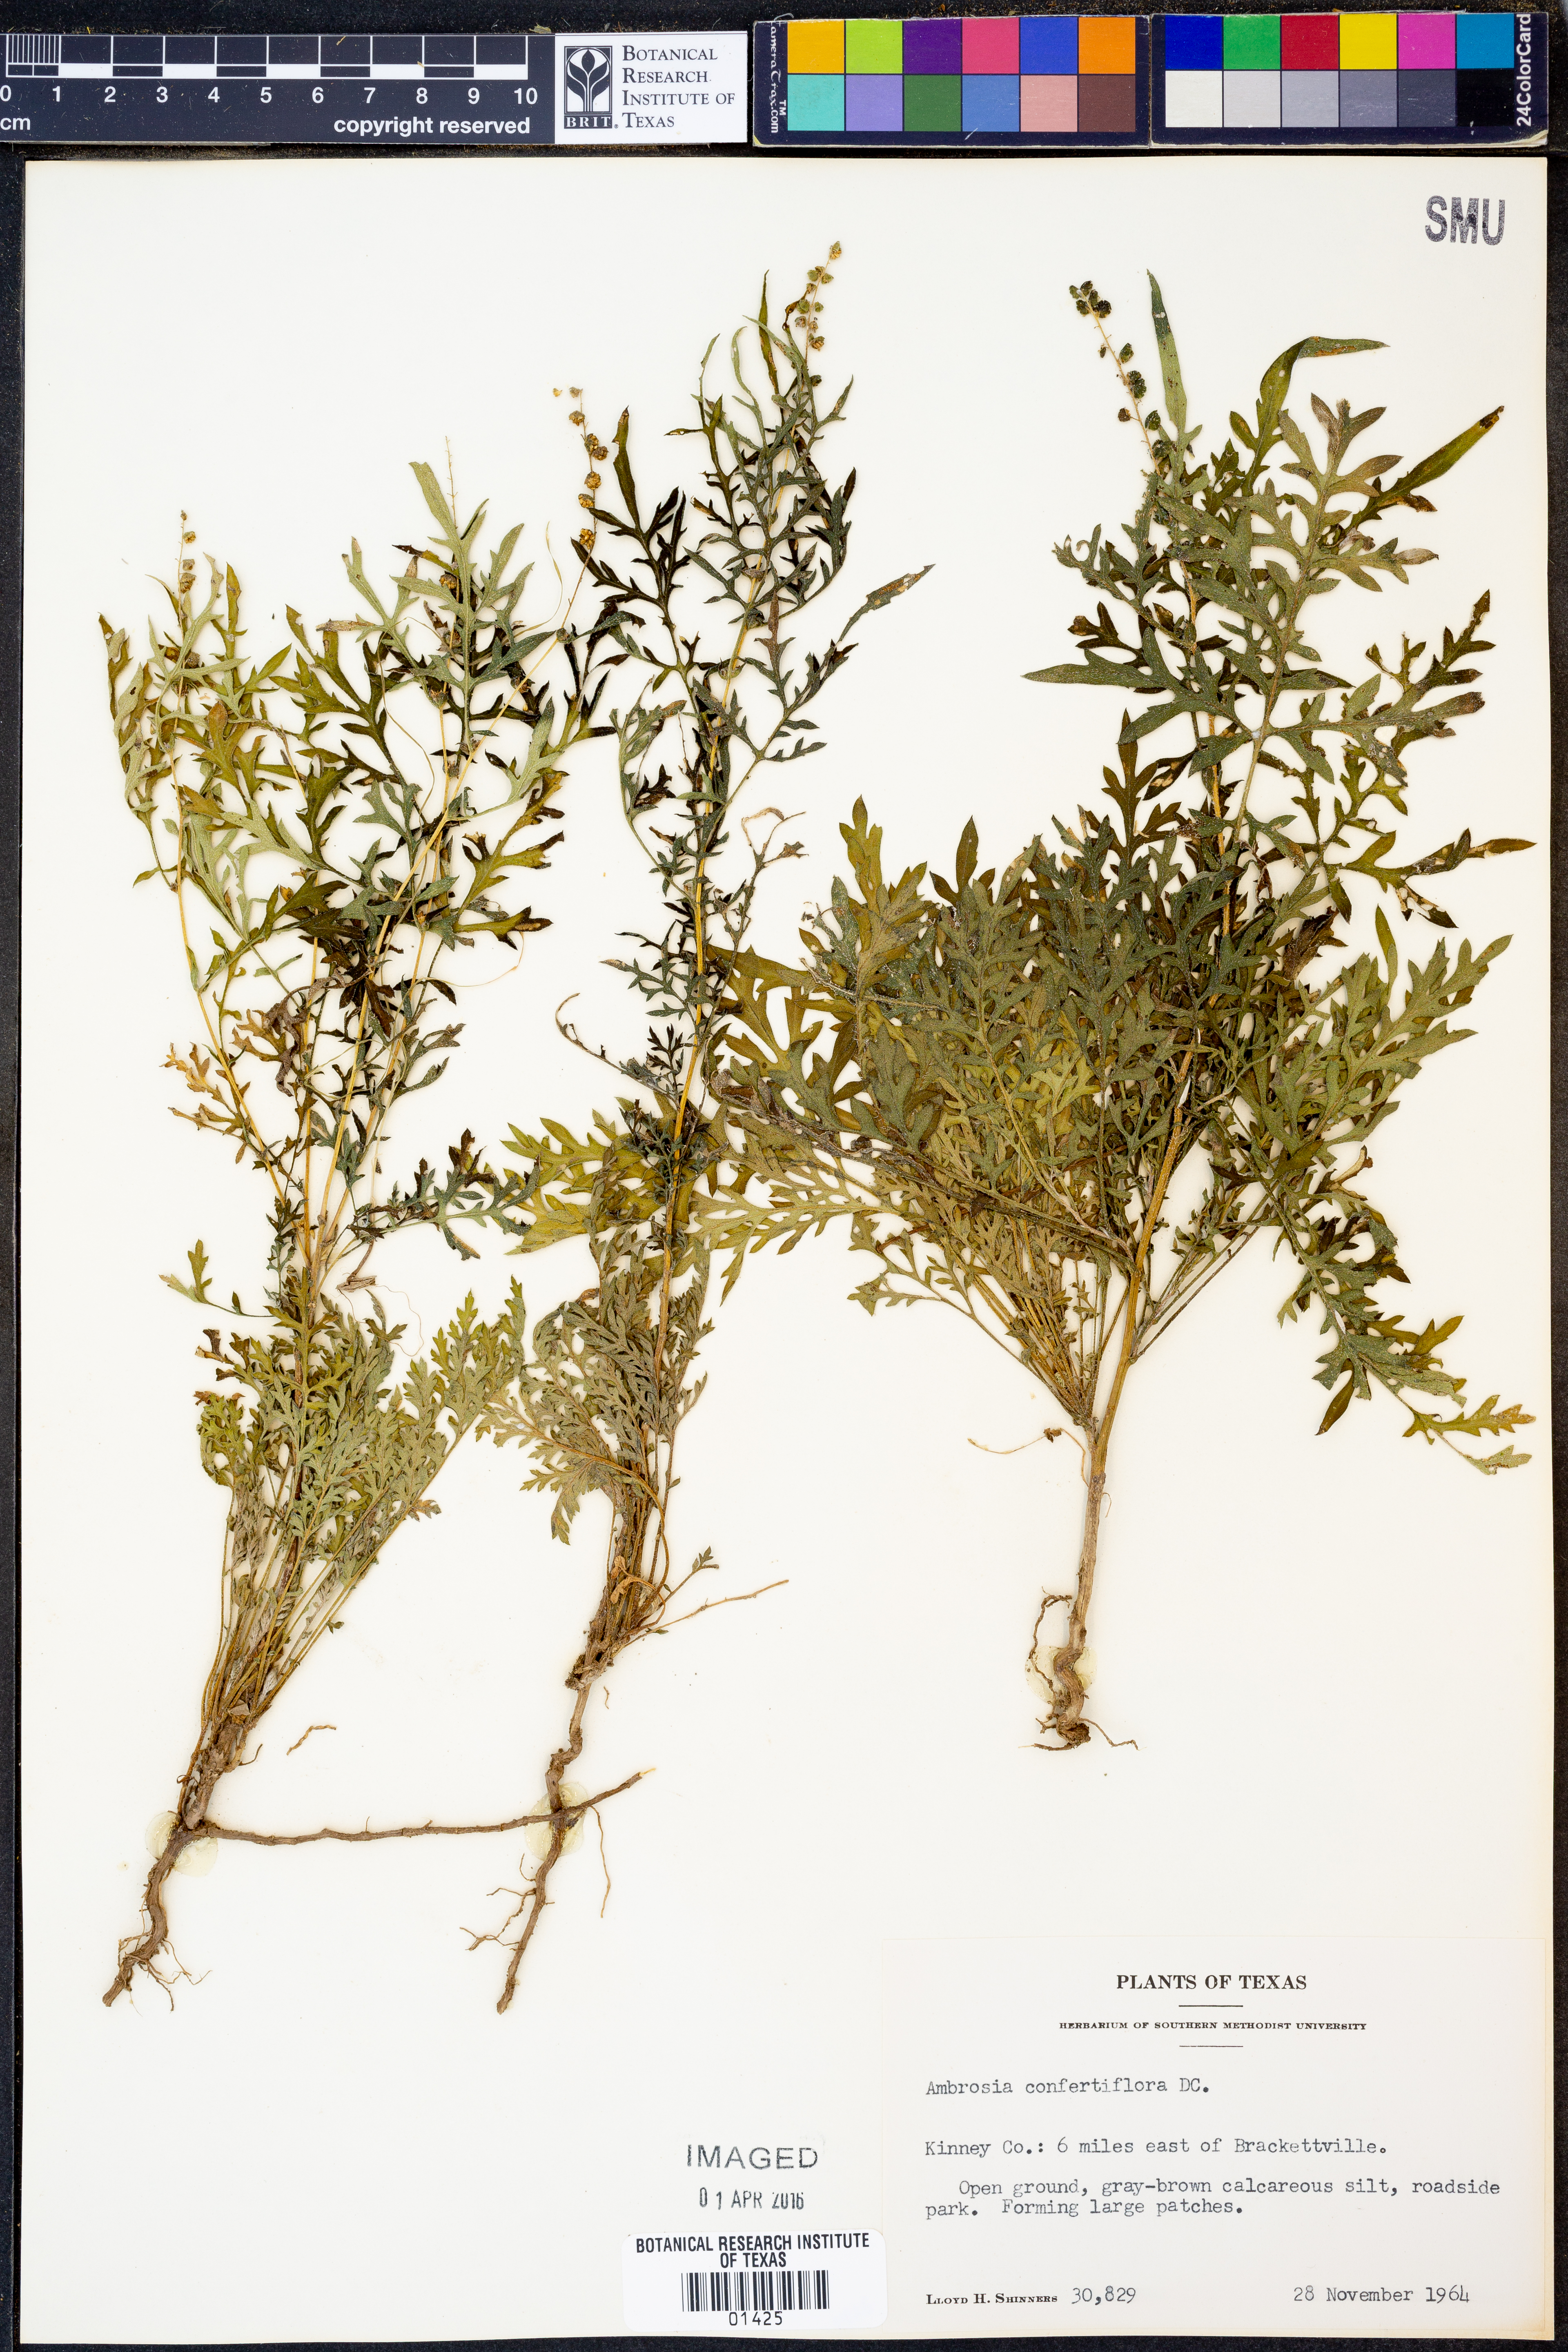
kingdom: Plantae
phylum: Tracheophyta
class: Magnoliopsida
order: Asterales
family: Asteraceae
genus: Ambrosia
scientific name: Ambrosia confertiflora
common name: Bur ragweed
